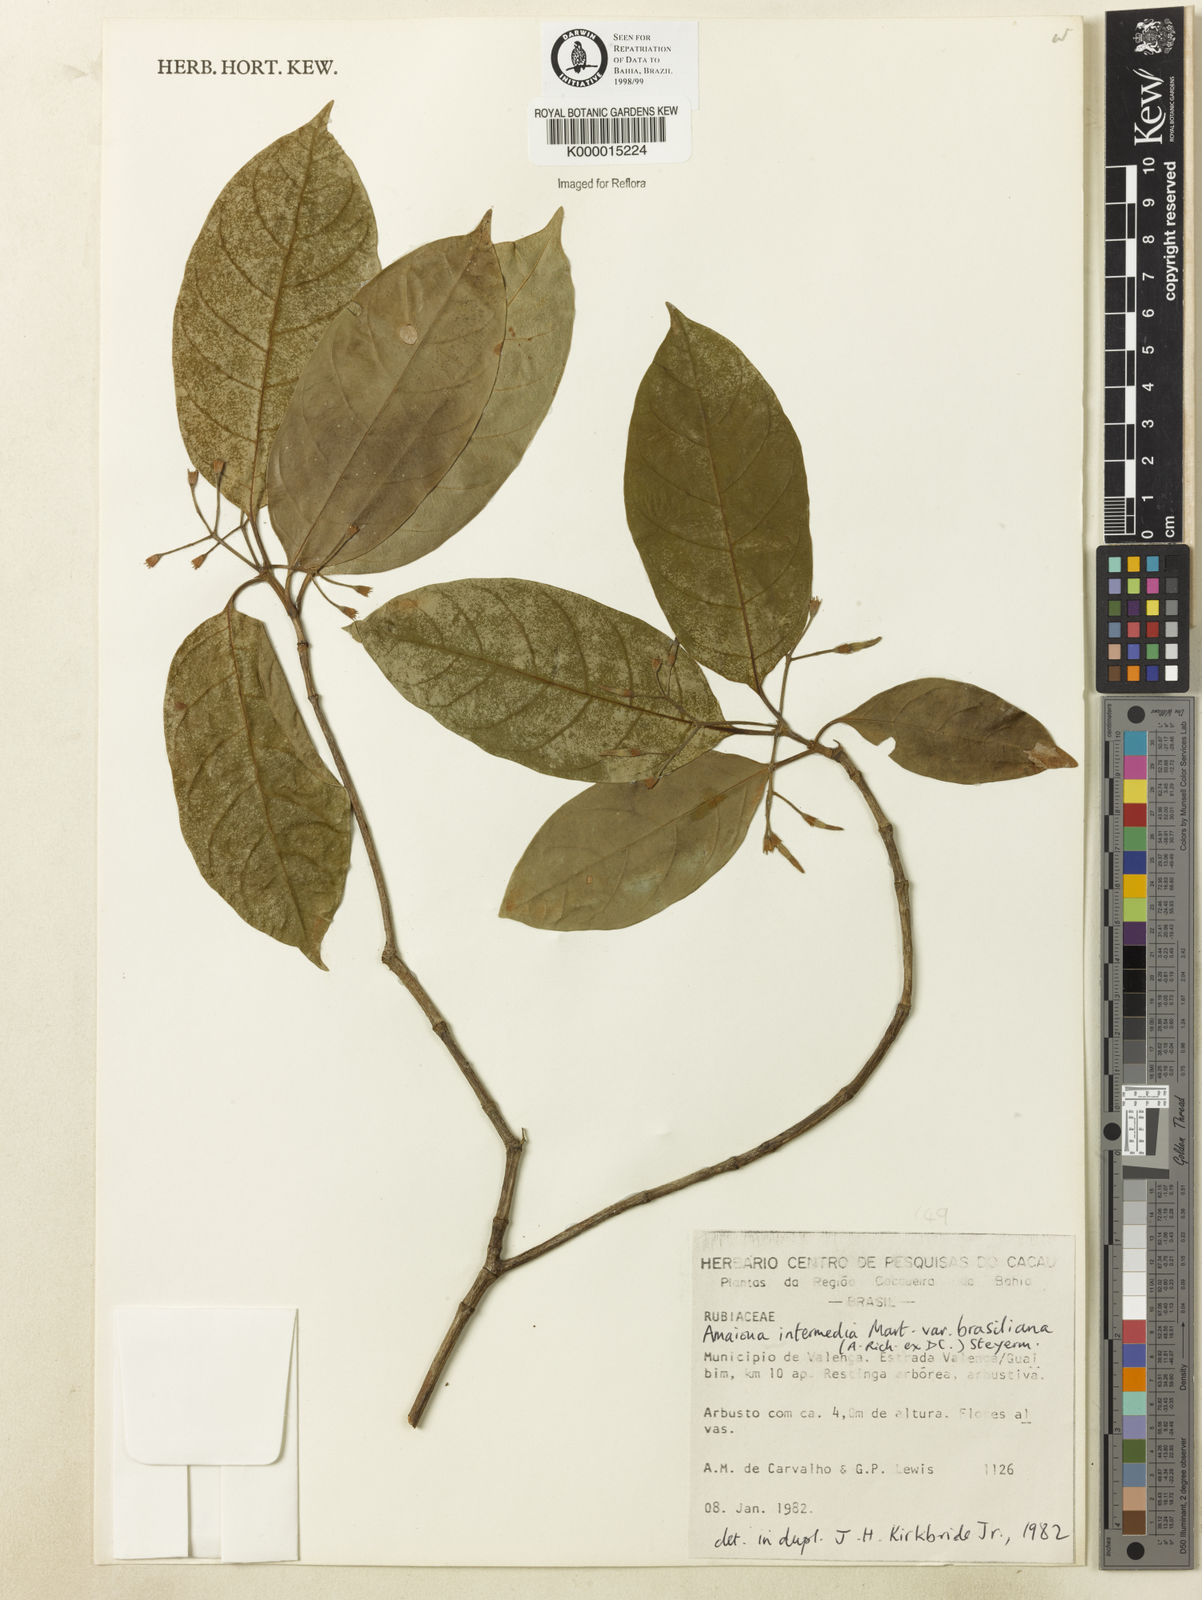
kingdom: Plantae
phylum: Tracheophyta
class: Magnoliopsida
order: Gentianales
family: Rubiaceae
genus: Amaioua
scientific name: Amaioua intermedia
